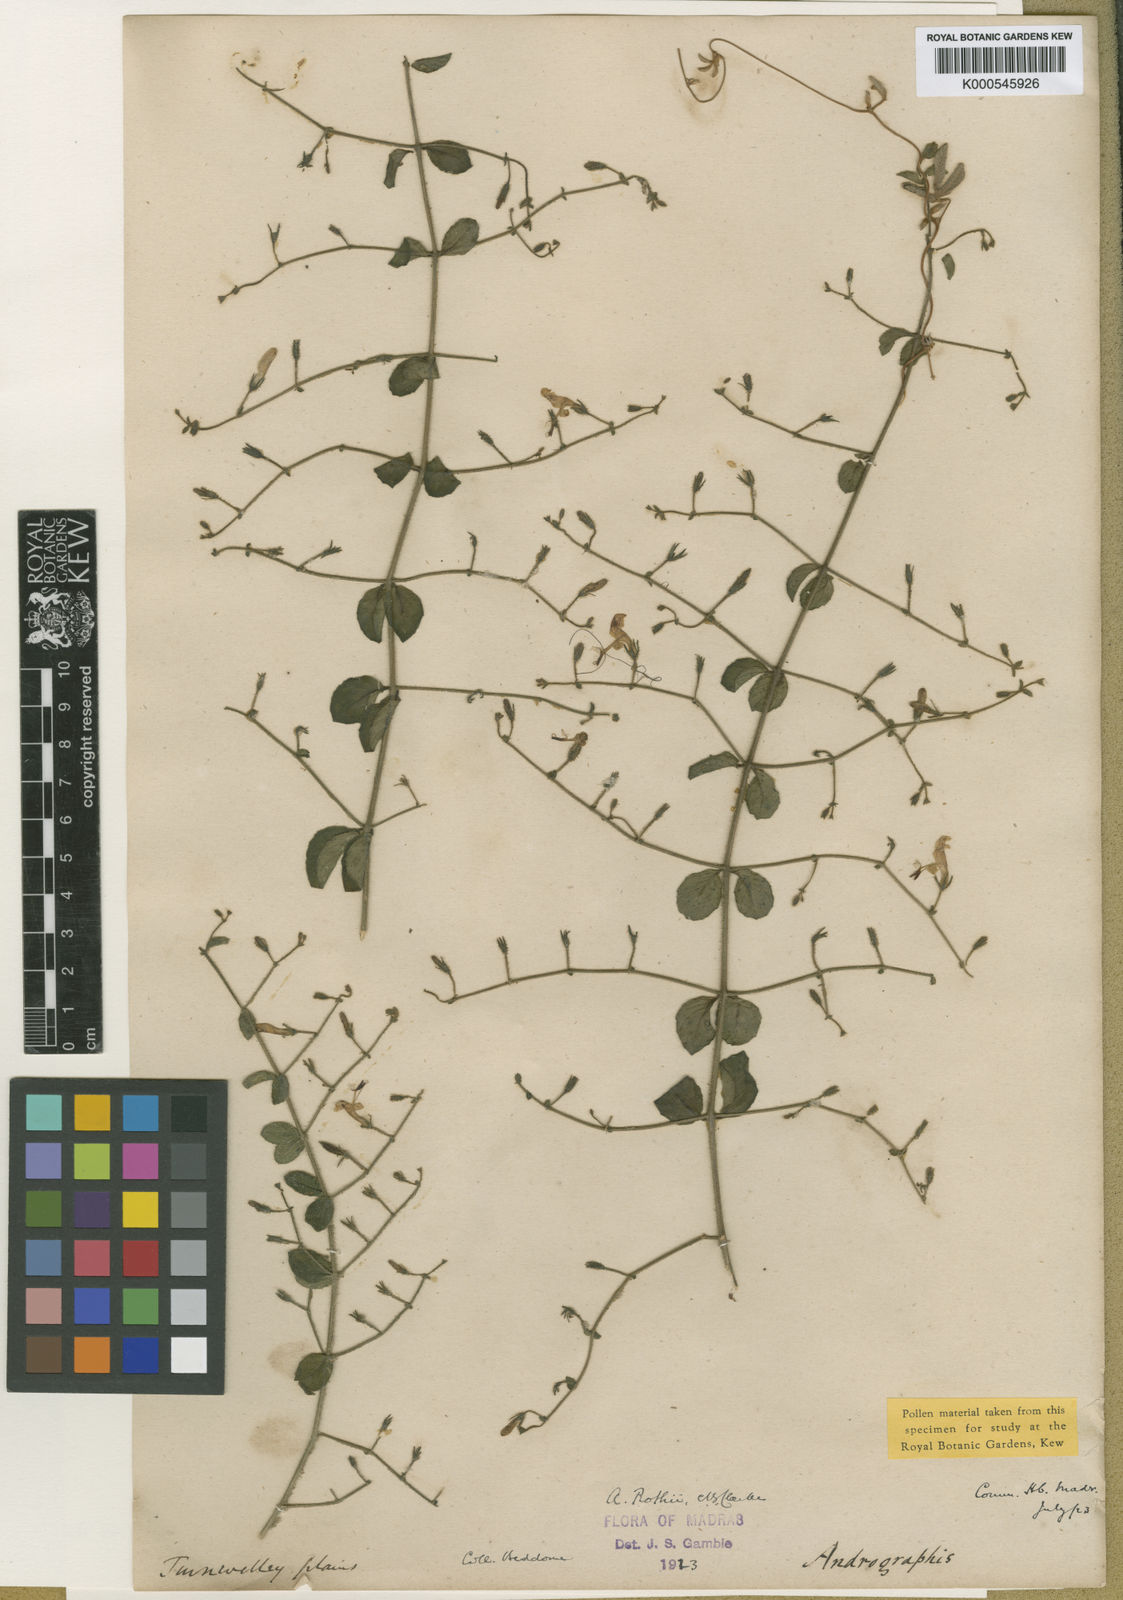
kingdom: Plantae
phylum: Tracheophyta
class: Magnoliopsida
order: Lamiales
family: Acanthaceae
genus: Andrographis
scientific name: Andrographis rothii
